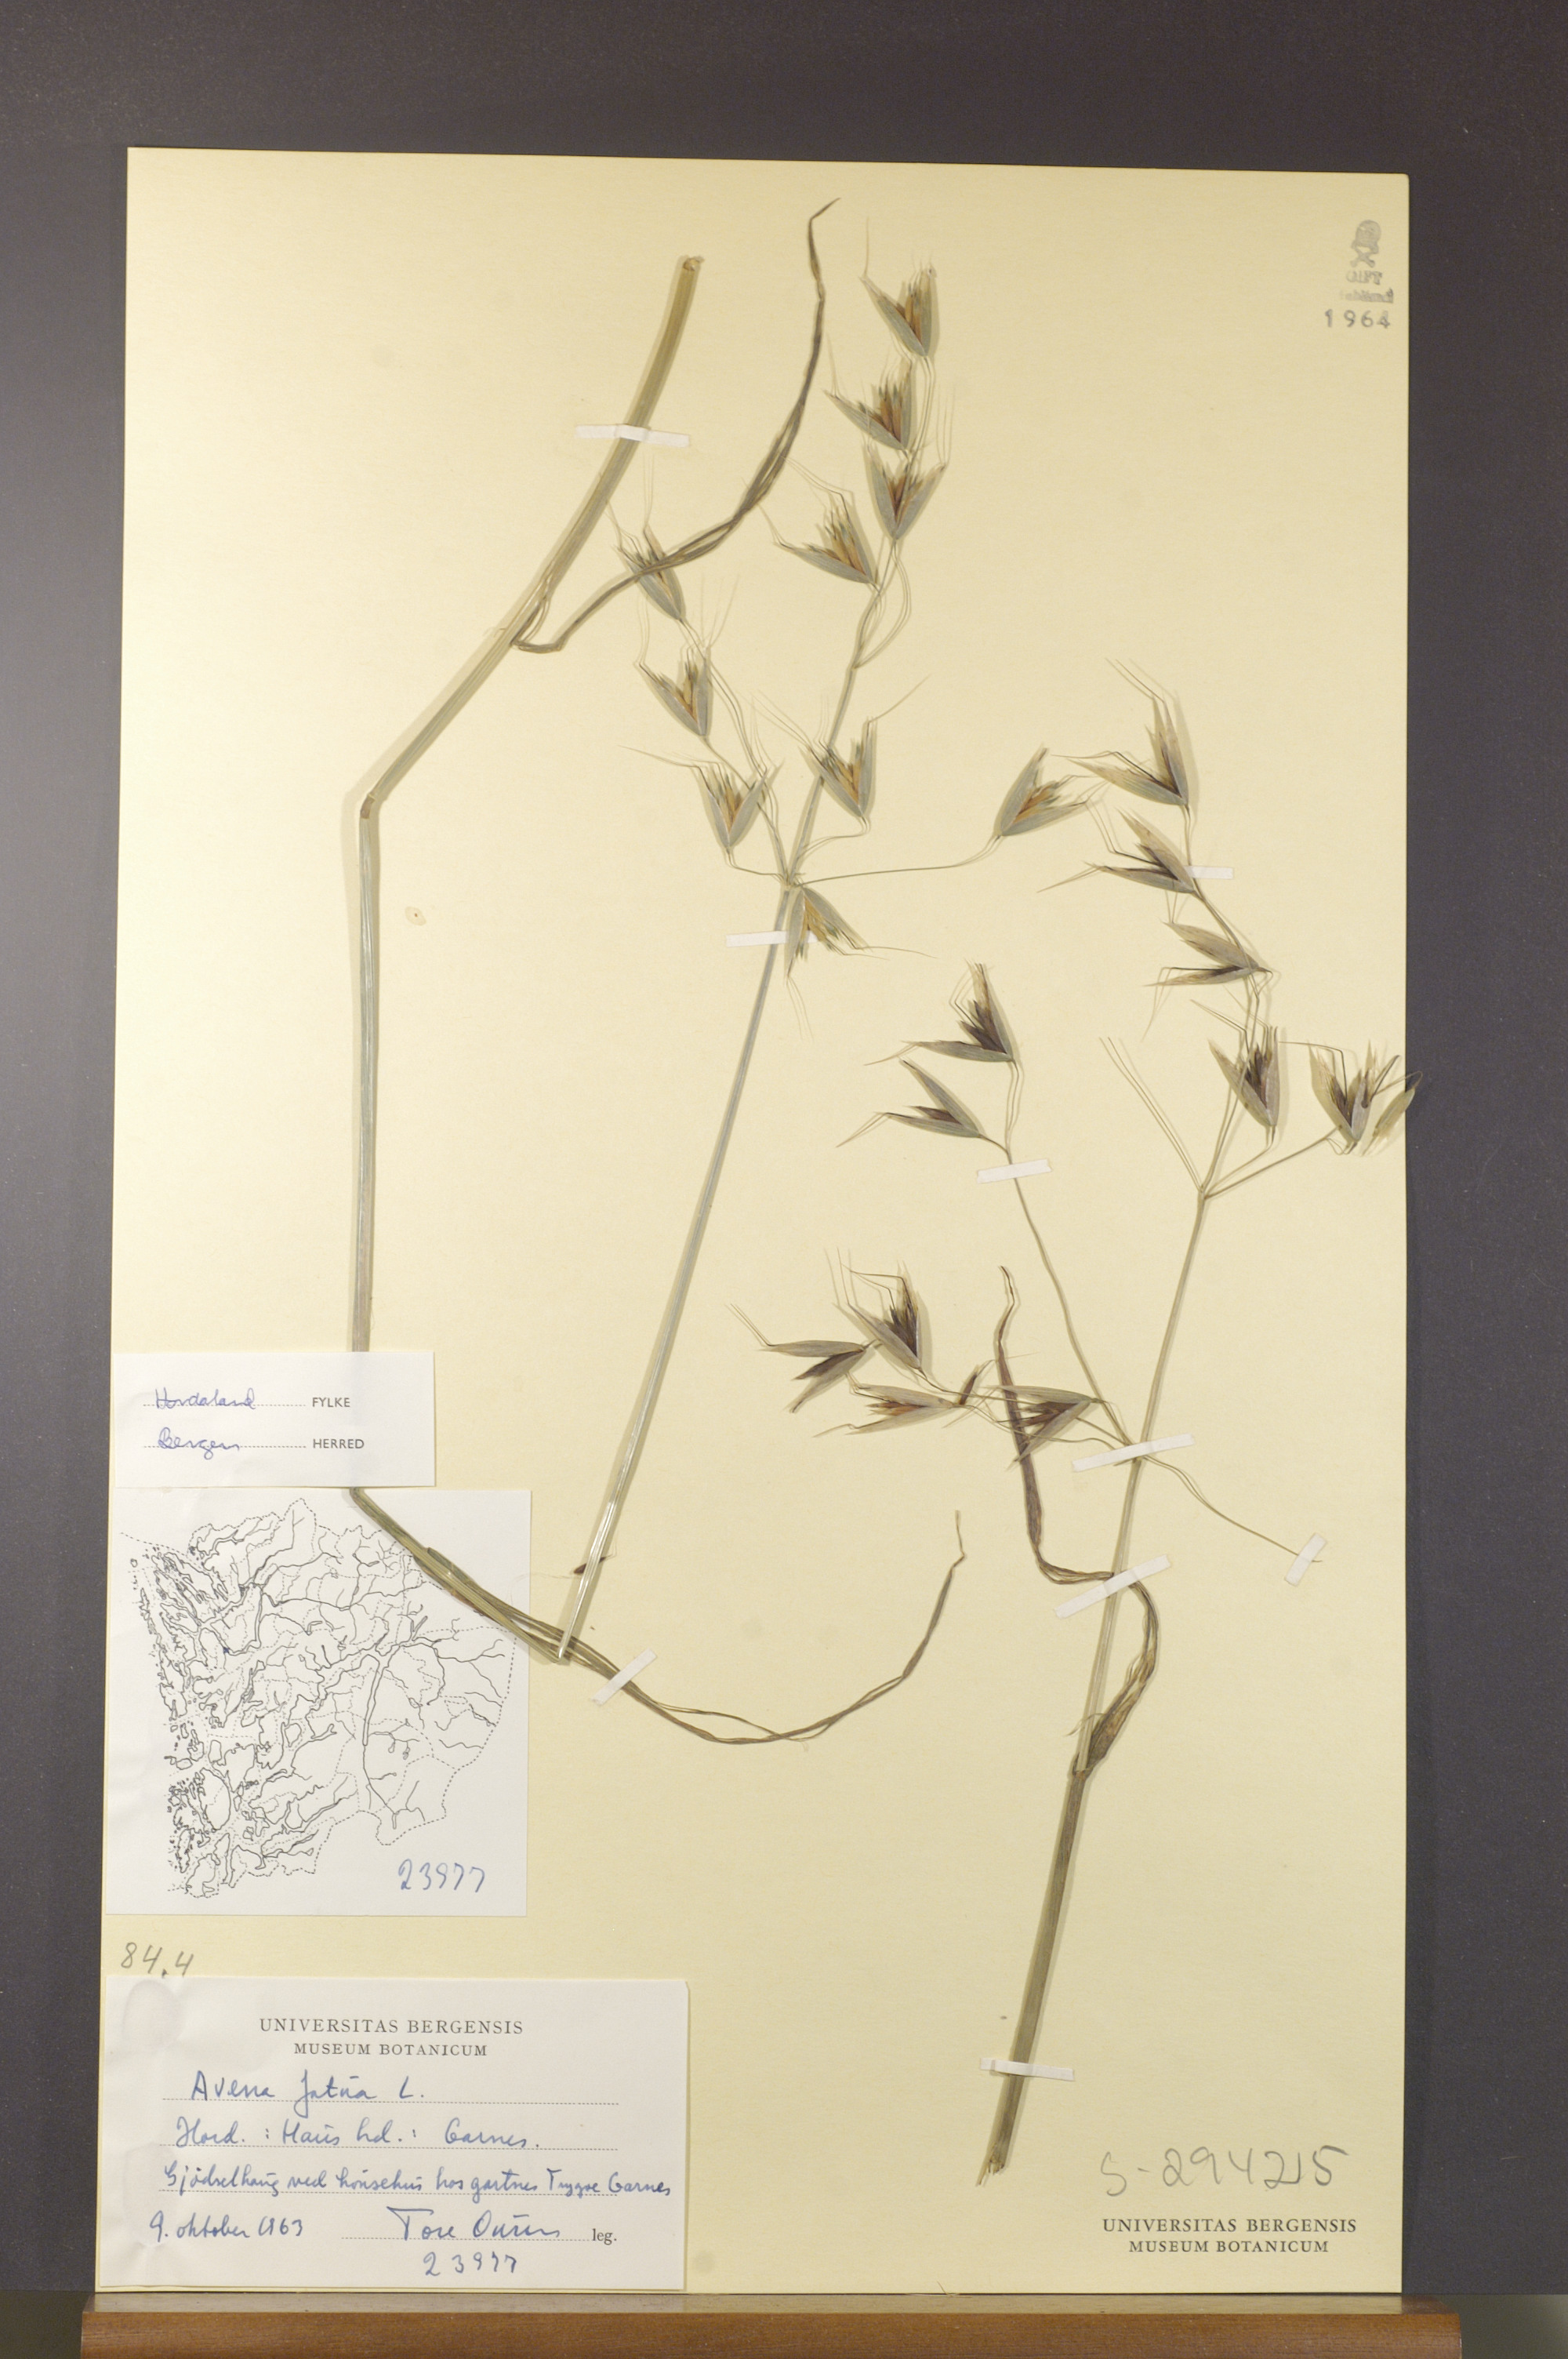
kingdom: Plantae
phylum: Tracheophyta
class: Liliopsida
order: Poales
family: Poaceae
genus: Avena
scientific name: Avena fatua
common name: Wild oat
